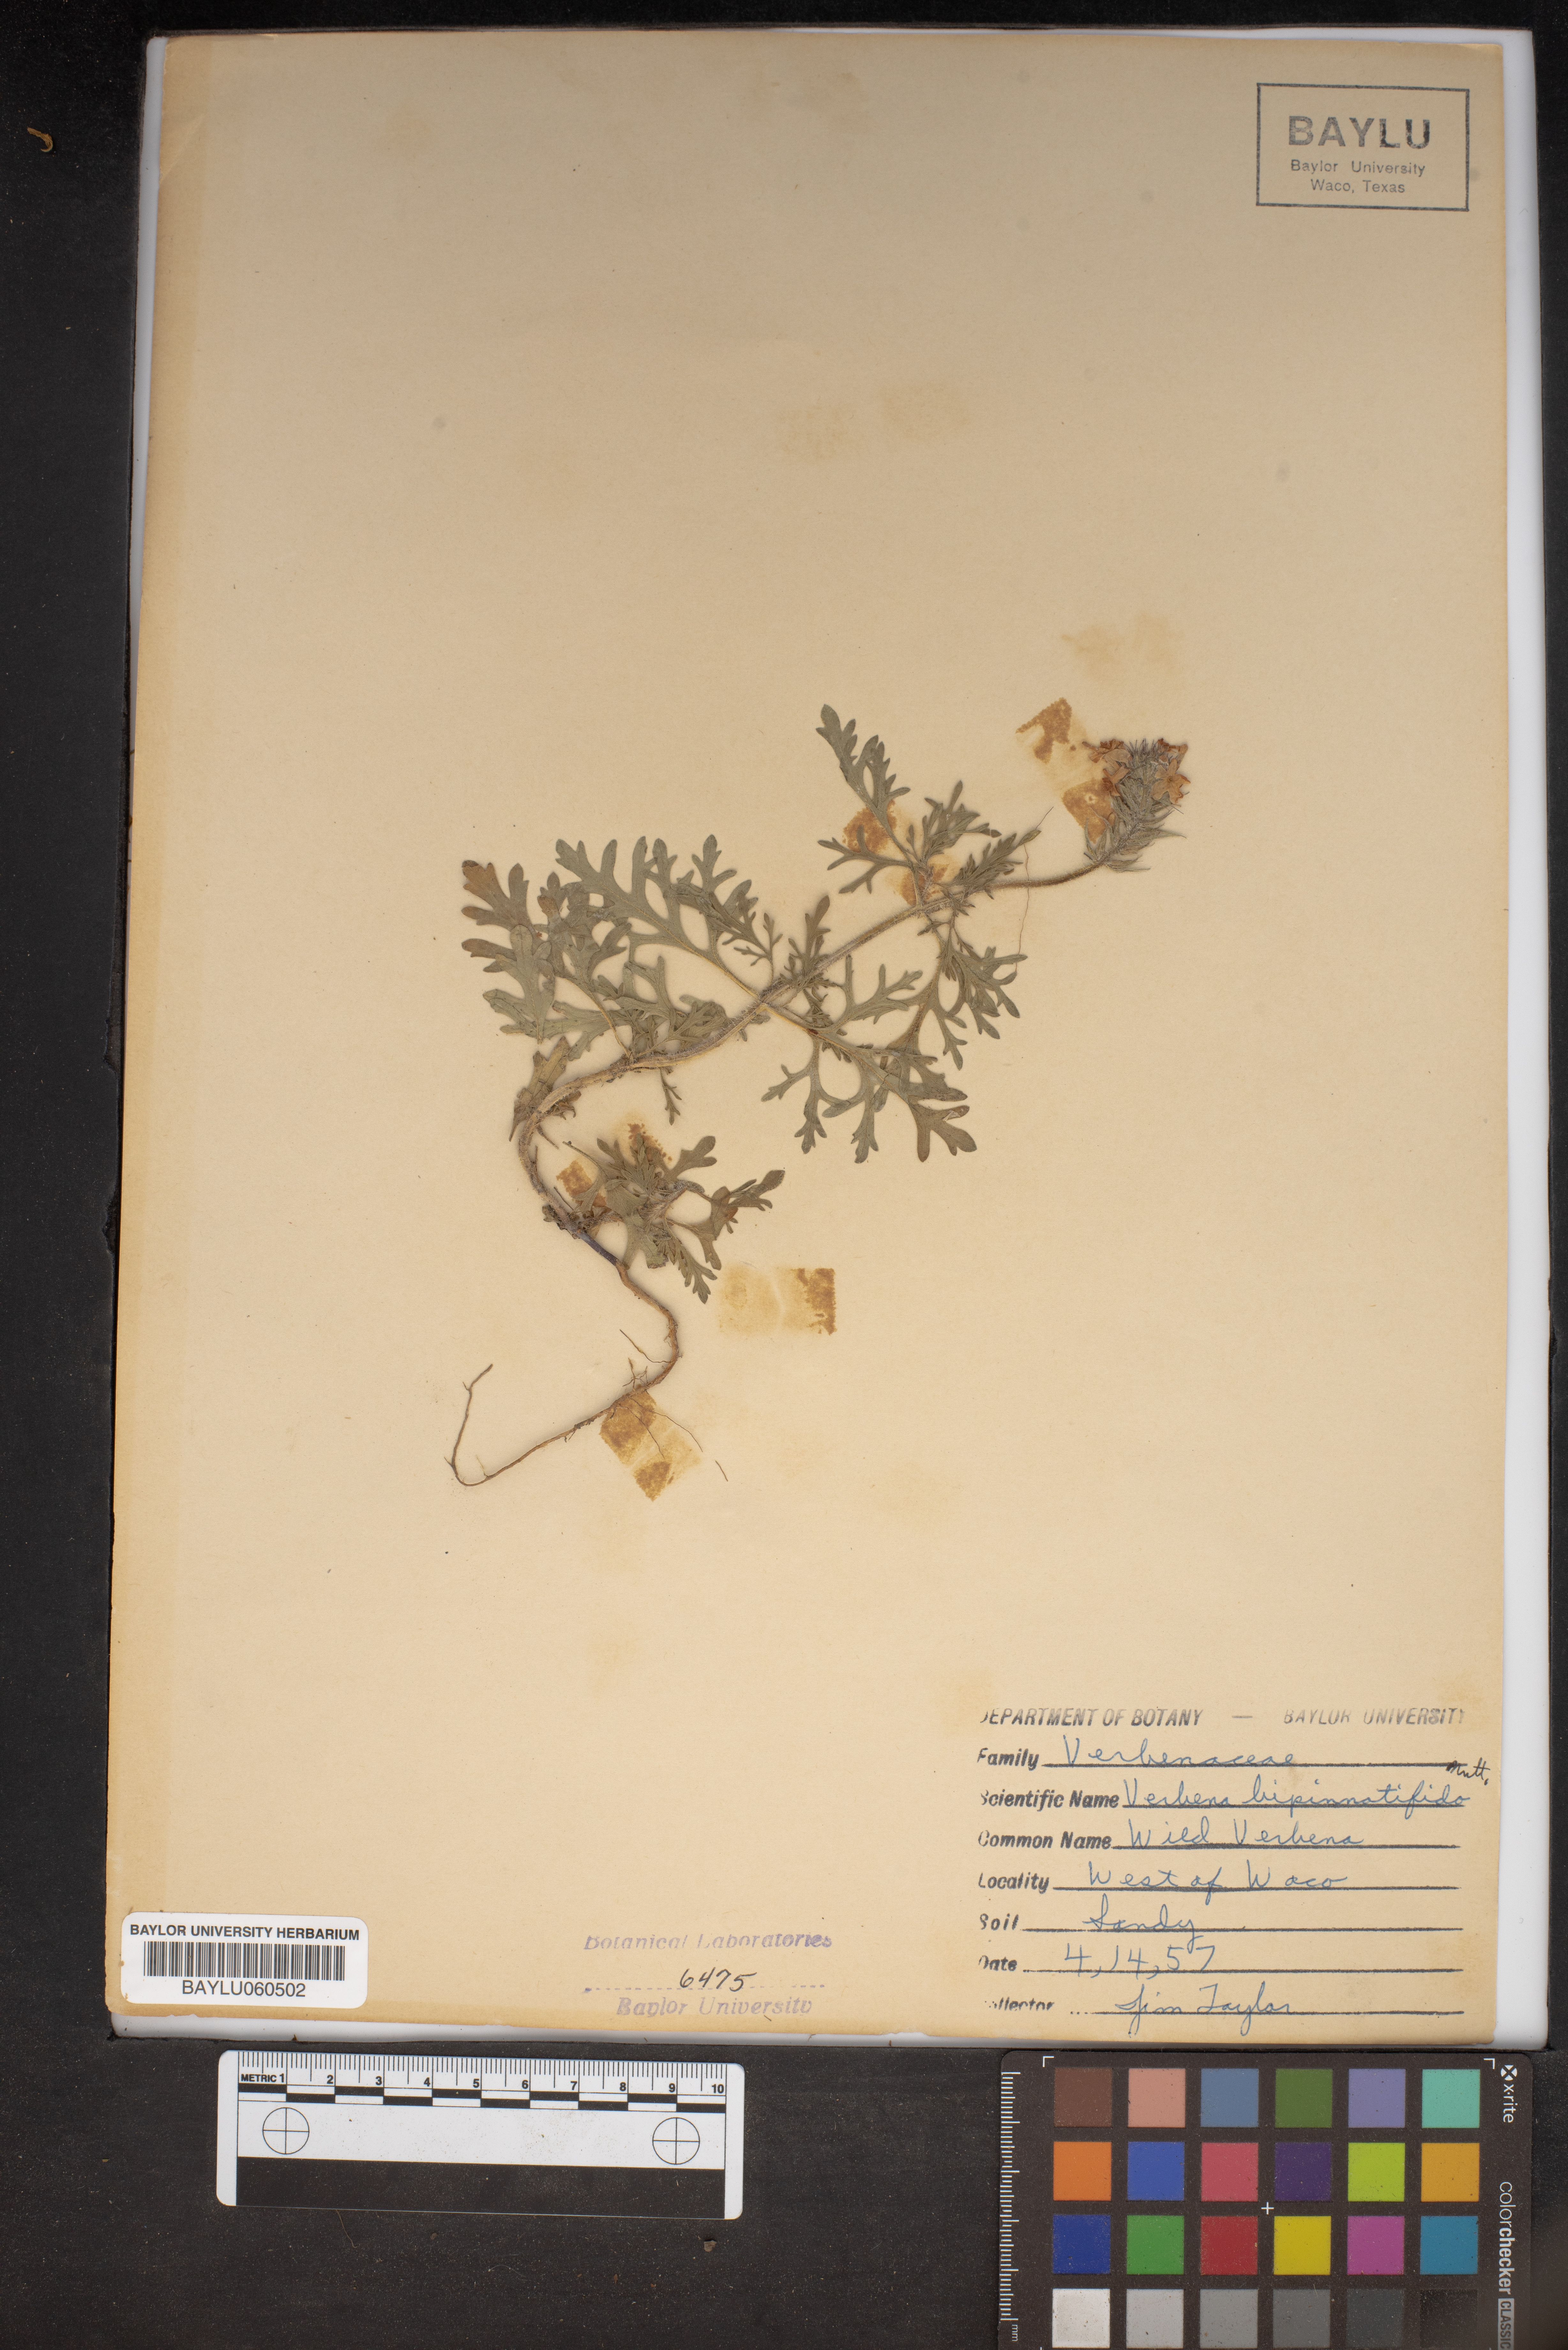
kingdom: Plantae
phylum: Tracheophyta
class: Magnoliopsida
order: Lamiales
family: Verbenaceae
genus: Verbena
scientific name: Verbena bipinnatifida
